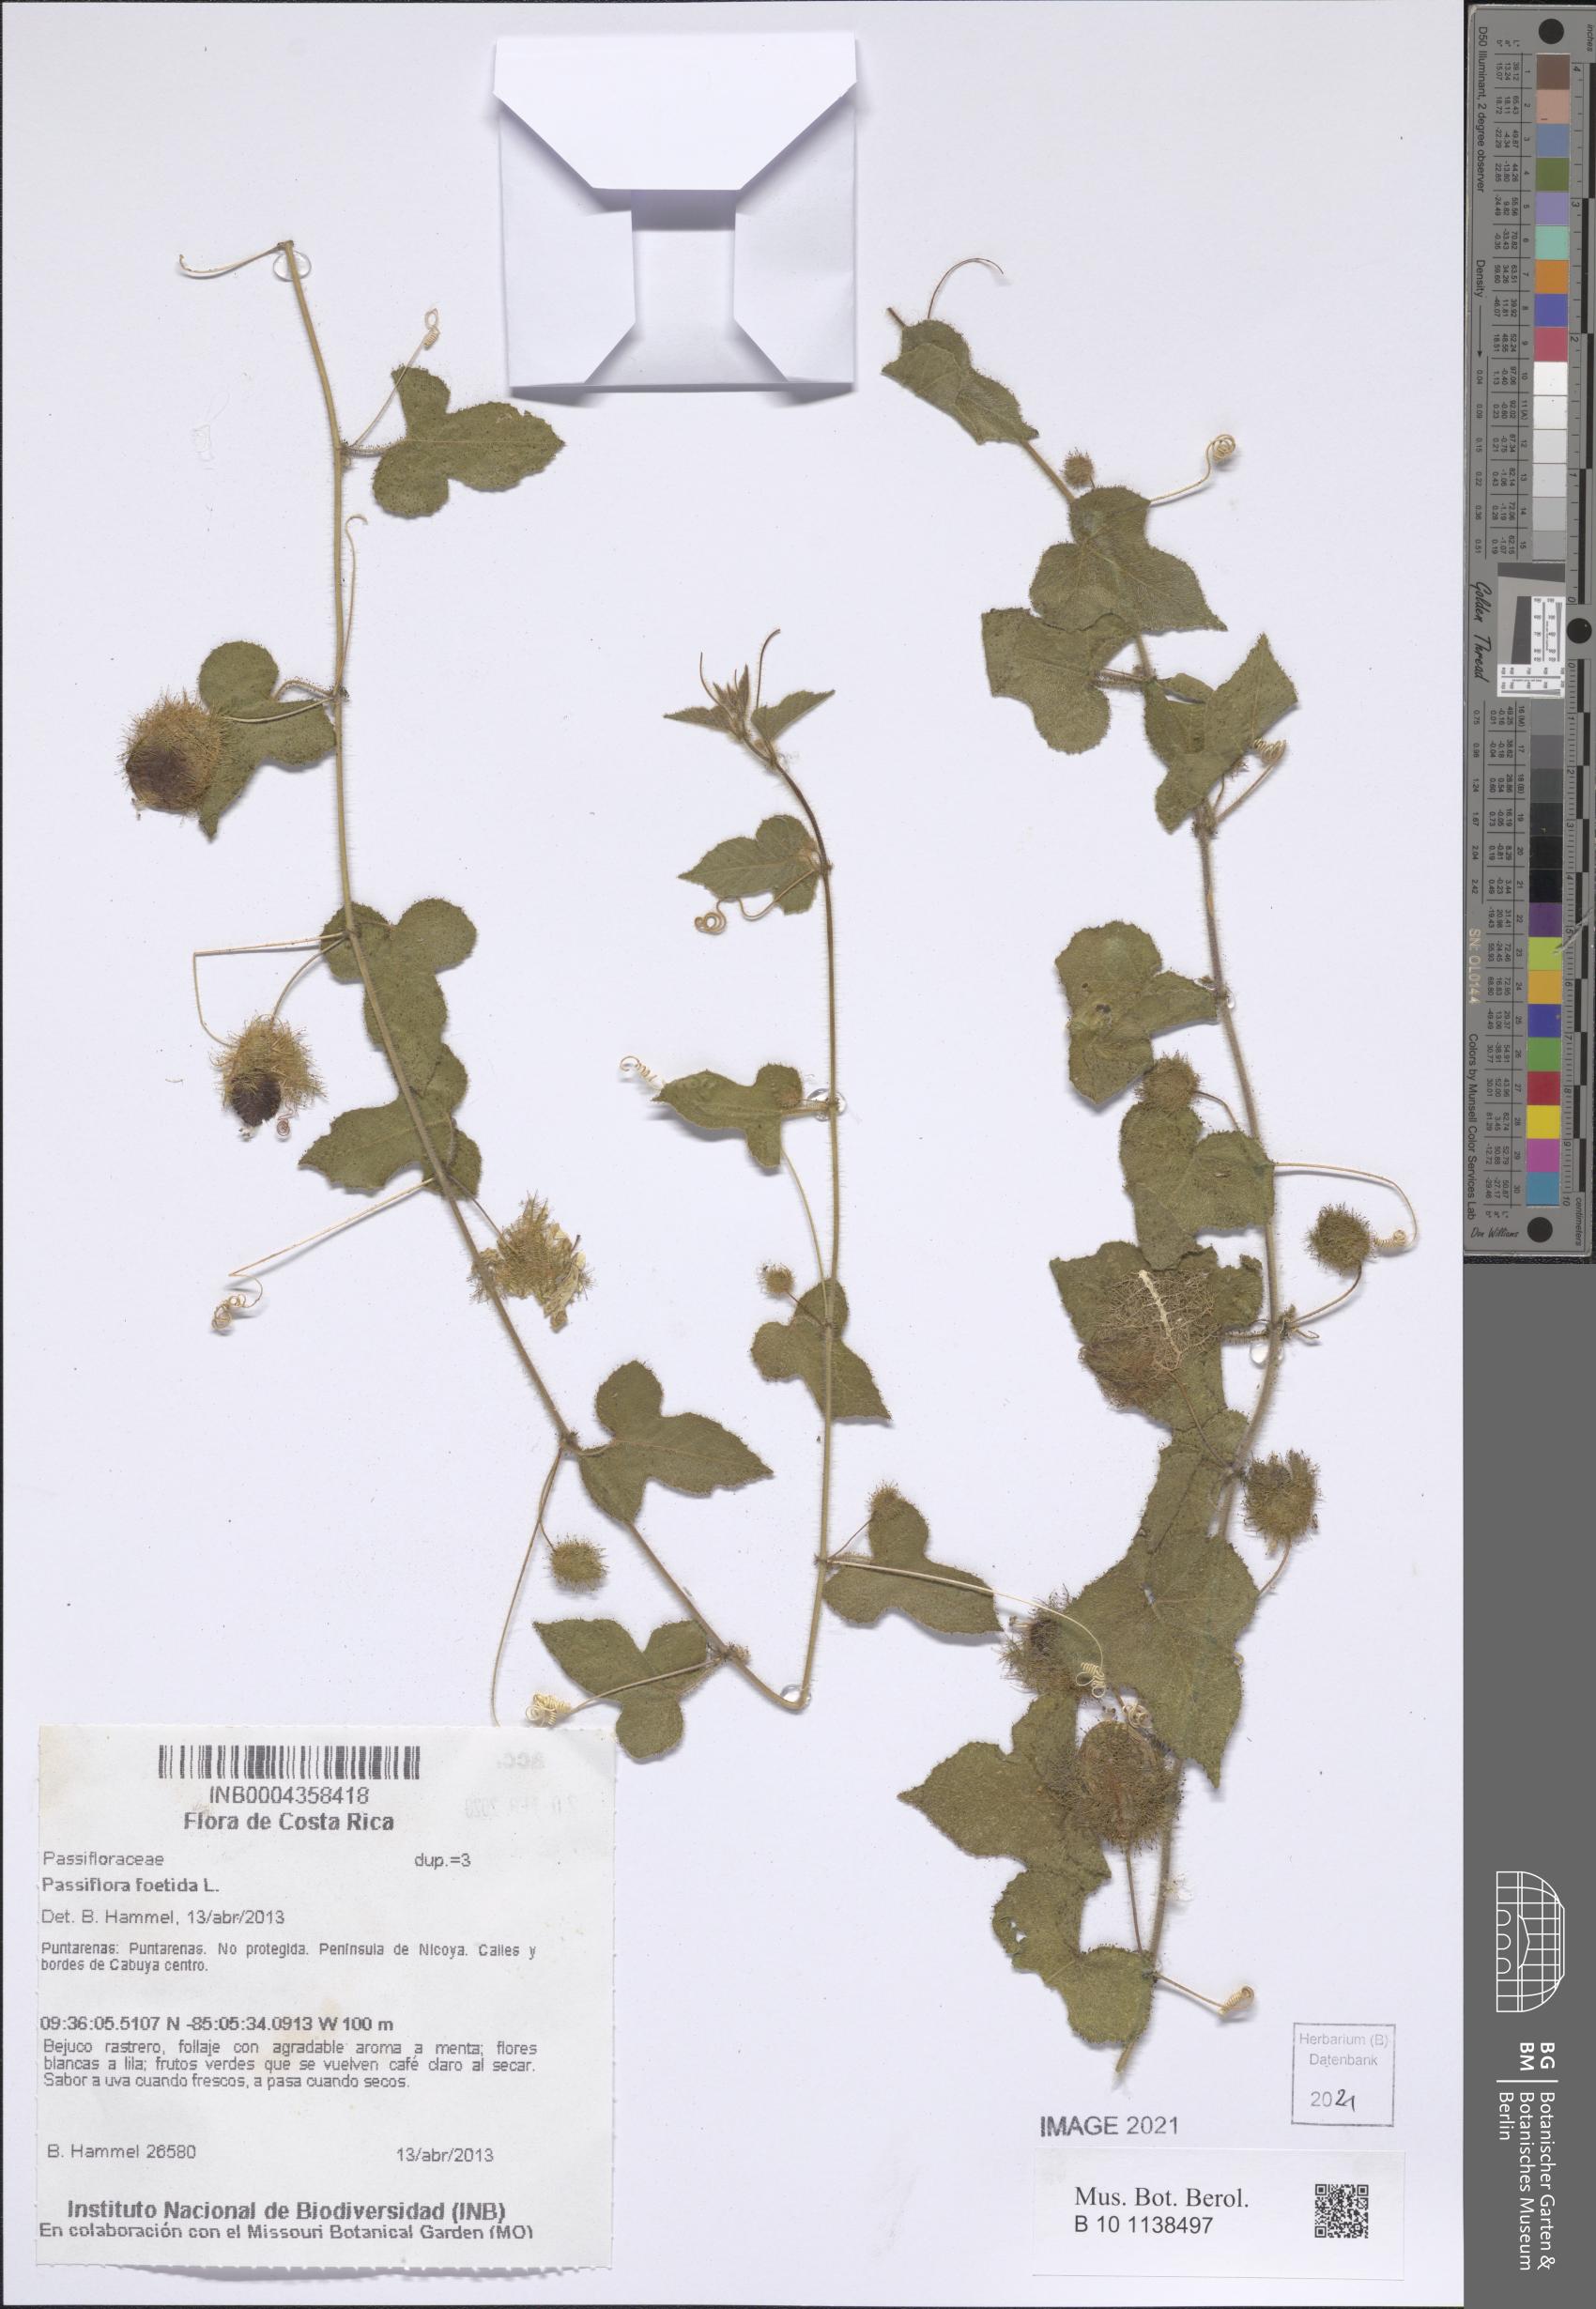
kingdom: Plantae
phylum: Tracheophyta
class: Magnoliopsida
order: Malpighiales
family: Passifloraceae
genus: Passiflora
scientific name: Passiflora foetida
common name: Fetid passionflower
